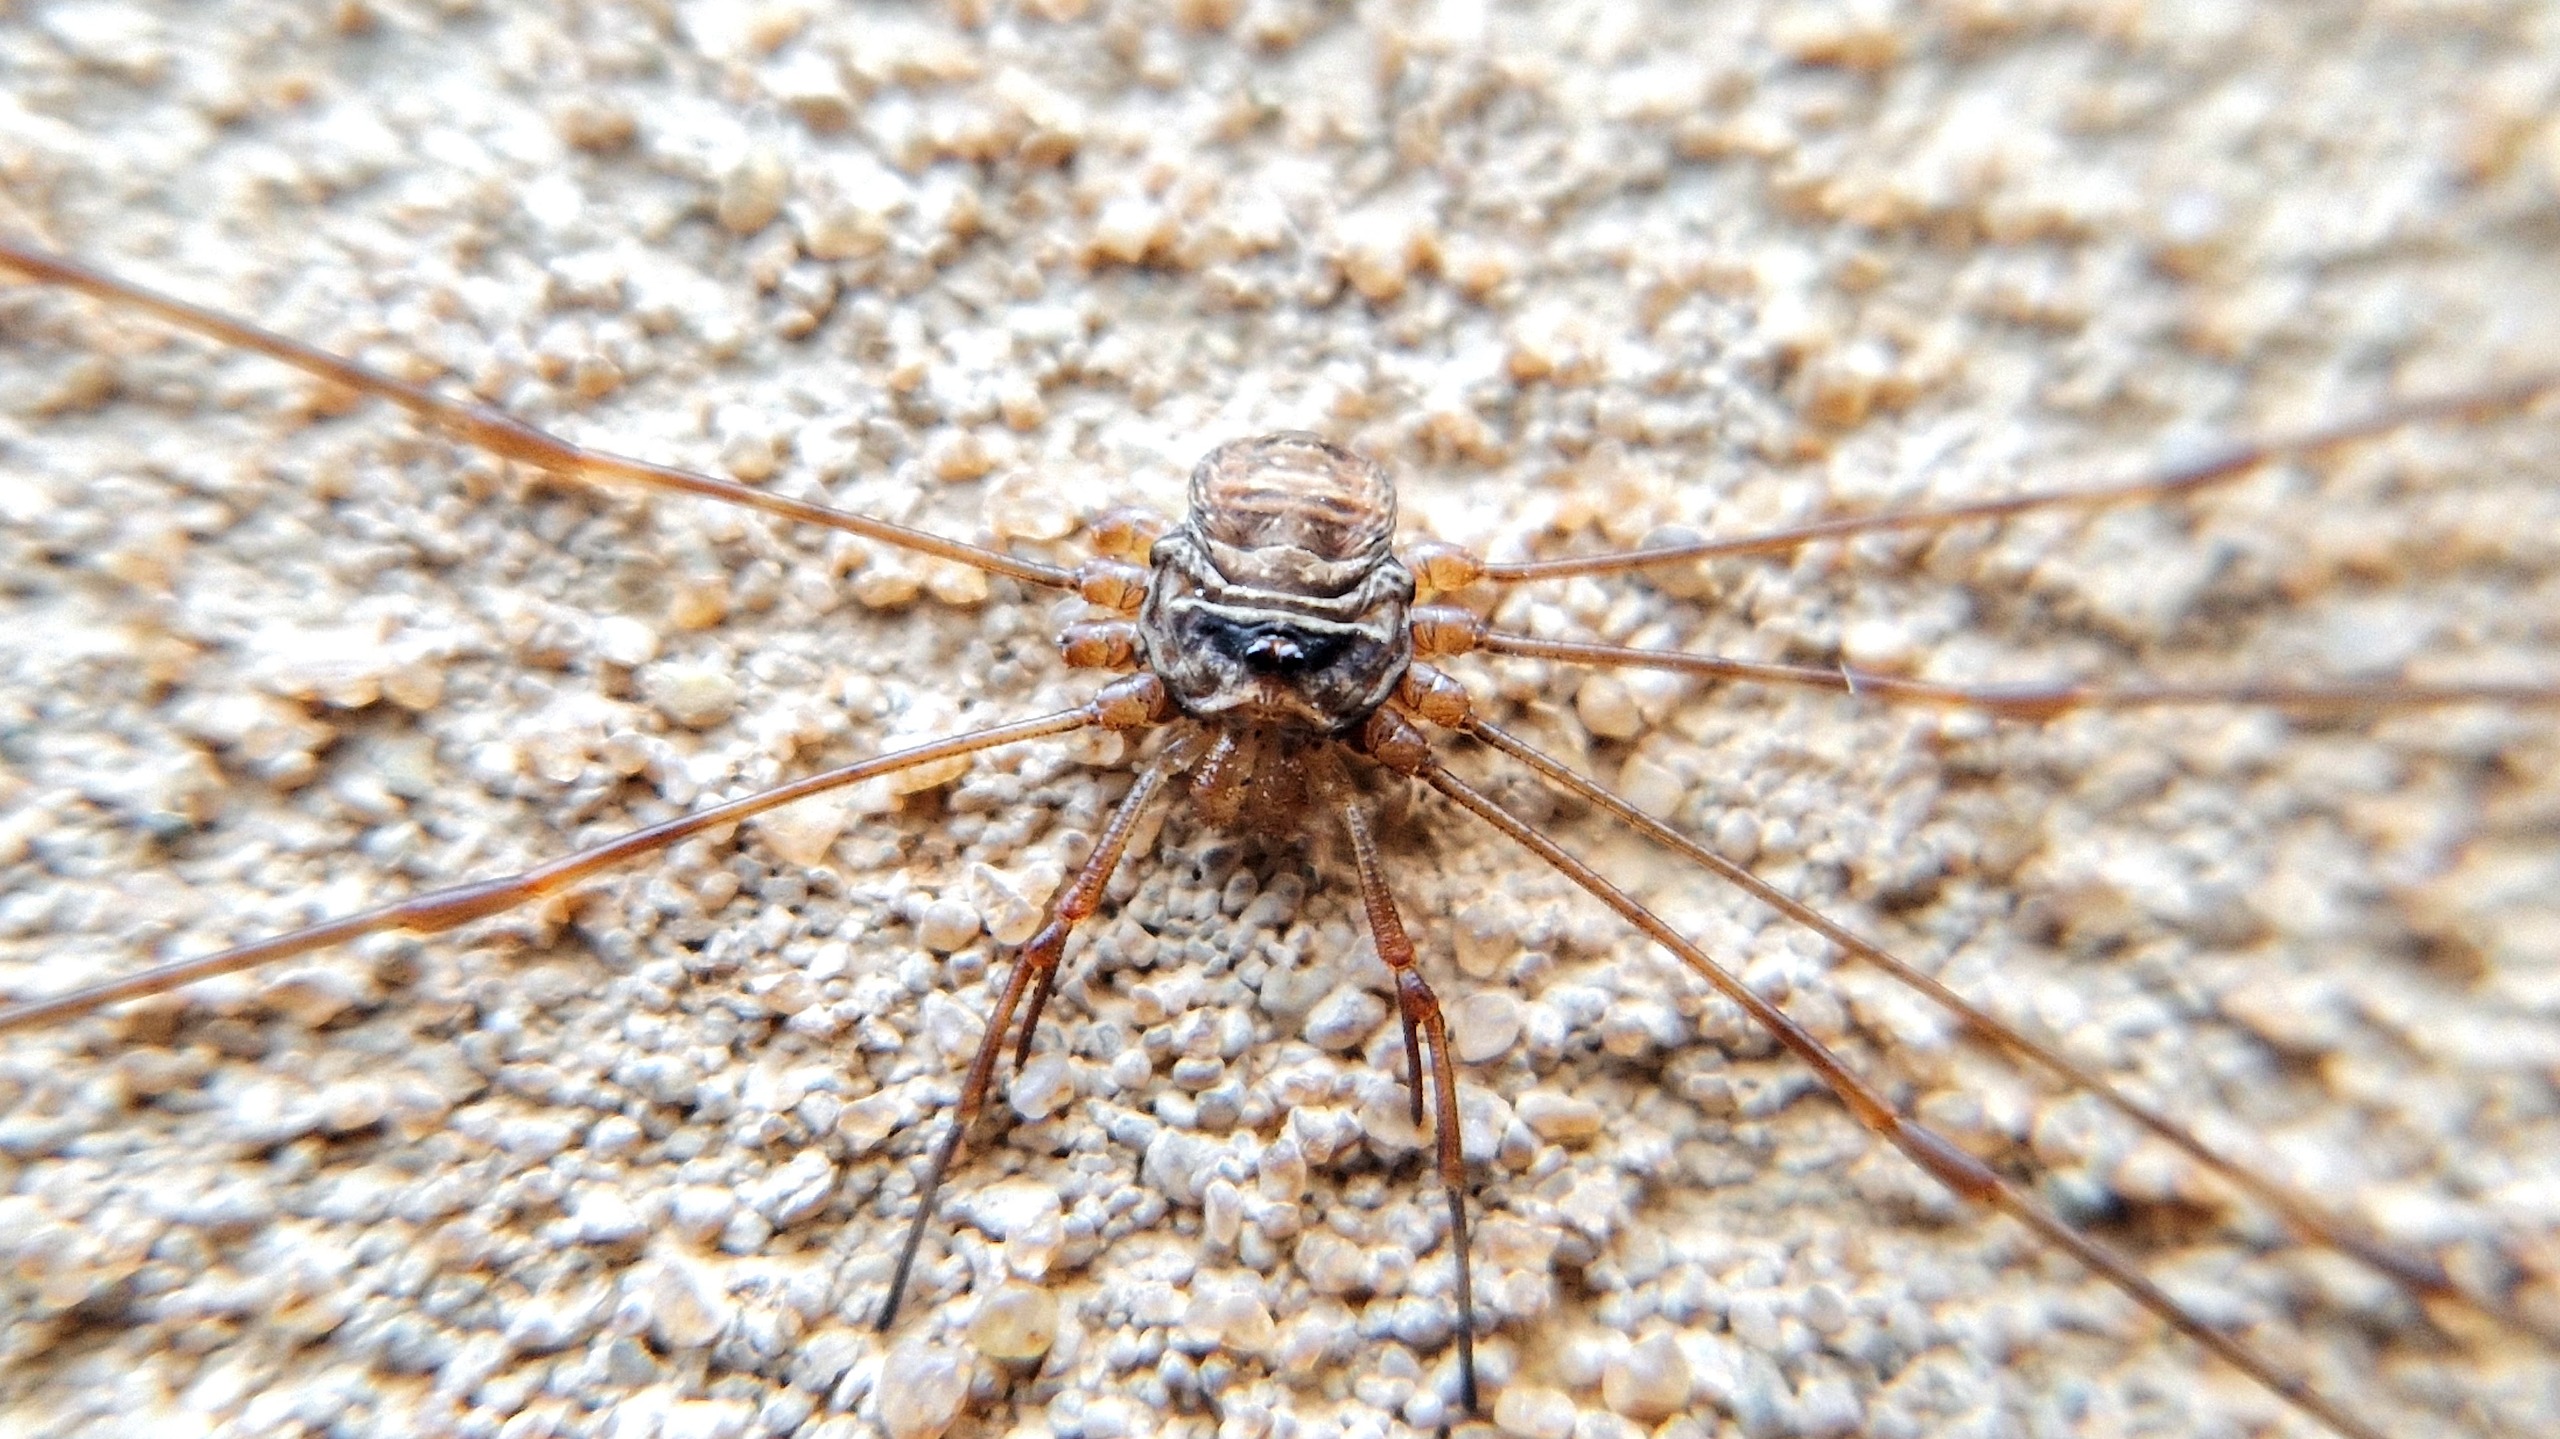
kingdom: Animalia
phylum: Arthropoda
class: Arachnida
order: Opiliones
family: Phalangiidae
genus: Dicranopalpus
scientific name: Dicranopalpus ramosus
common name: Gaffelmejer
